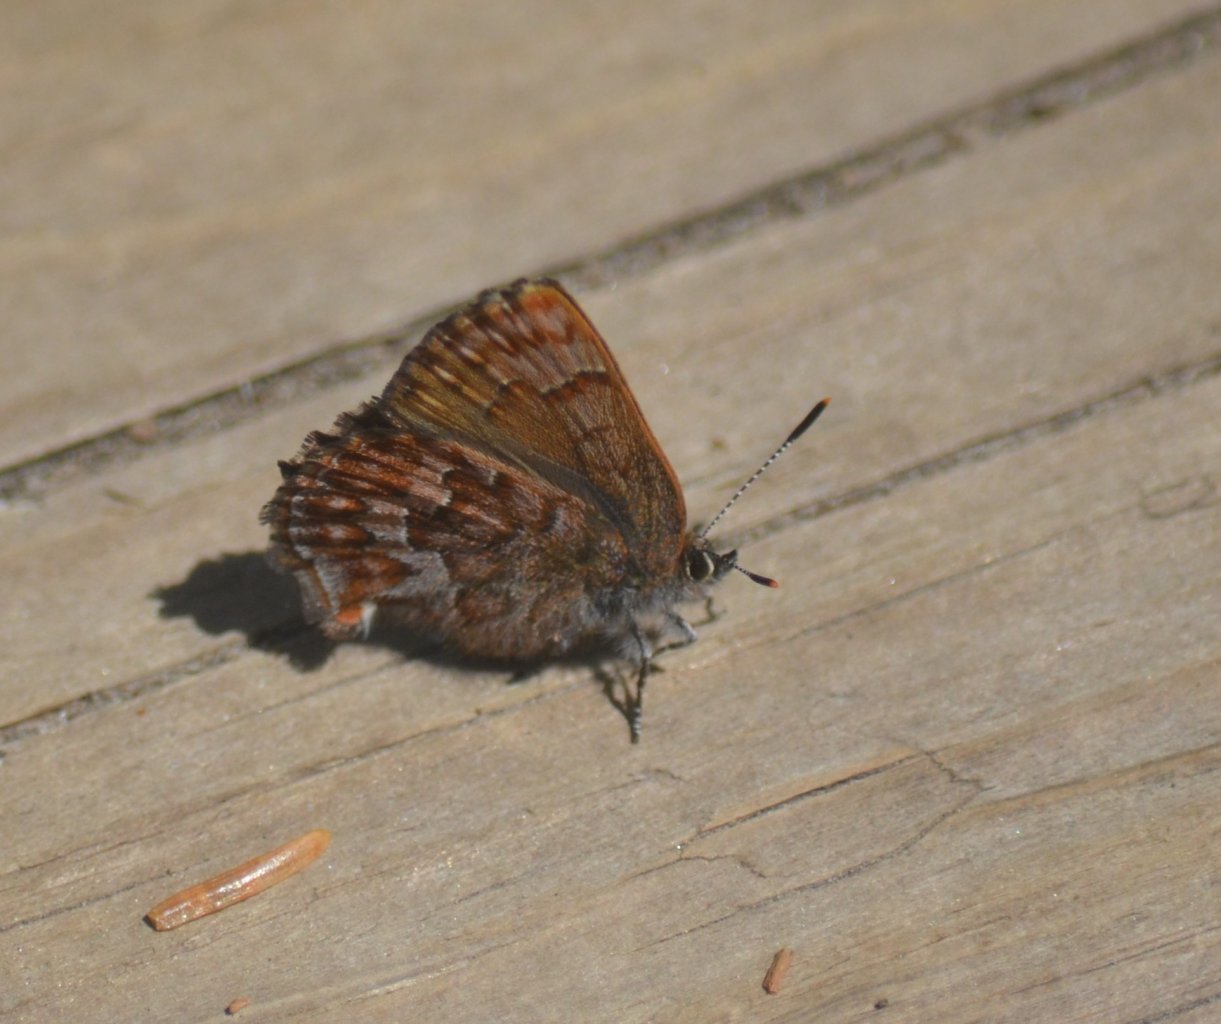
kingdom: Animalia
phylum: Arthropoda
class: Insecta
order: Lepidoptera
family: Lycaenidae
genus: Incisalia
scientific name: Incisalia niphon
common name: Eastern Pine Elfin
